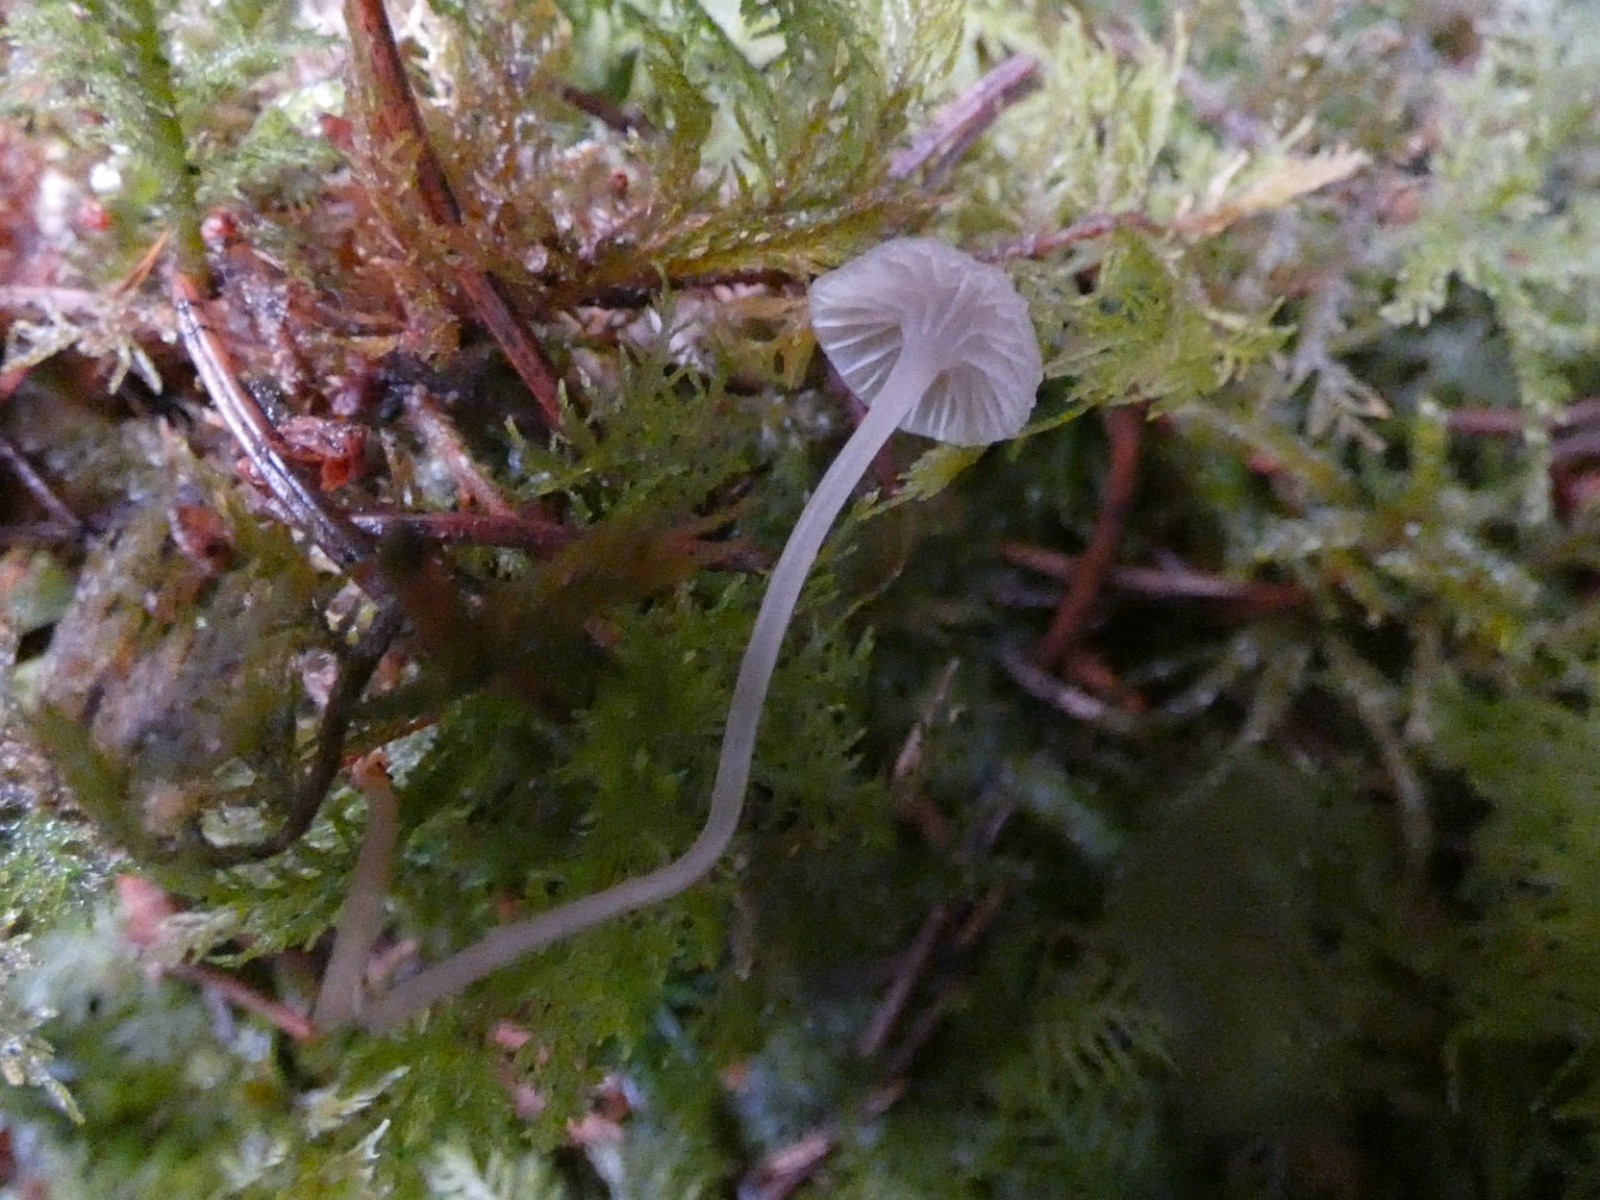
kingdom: Fungi
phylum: Basidiomycota
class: Agaricomycetes
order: Agaricales
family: Mycenaceae
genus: Mycena
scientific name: Mycena cinerella
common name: mel-huesvamp
